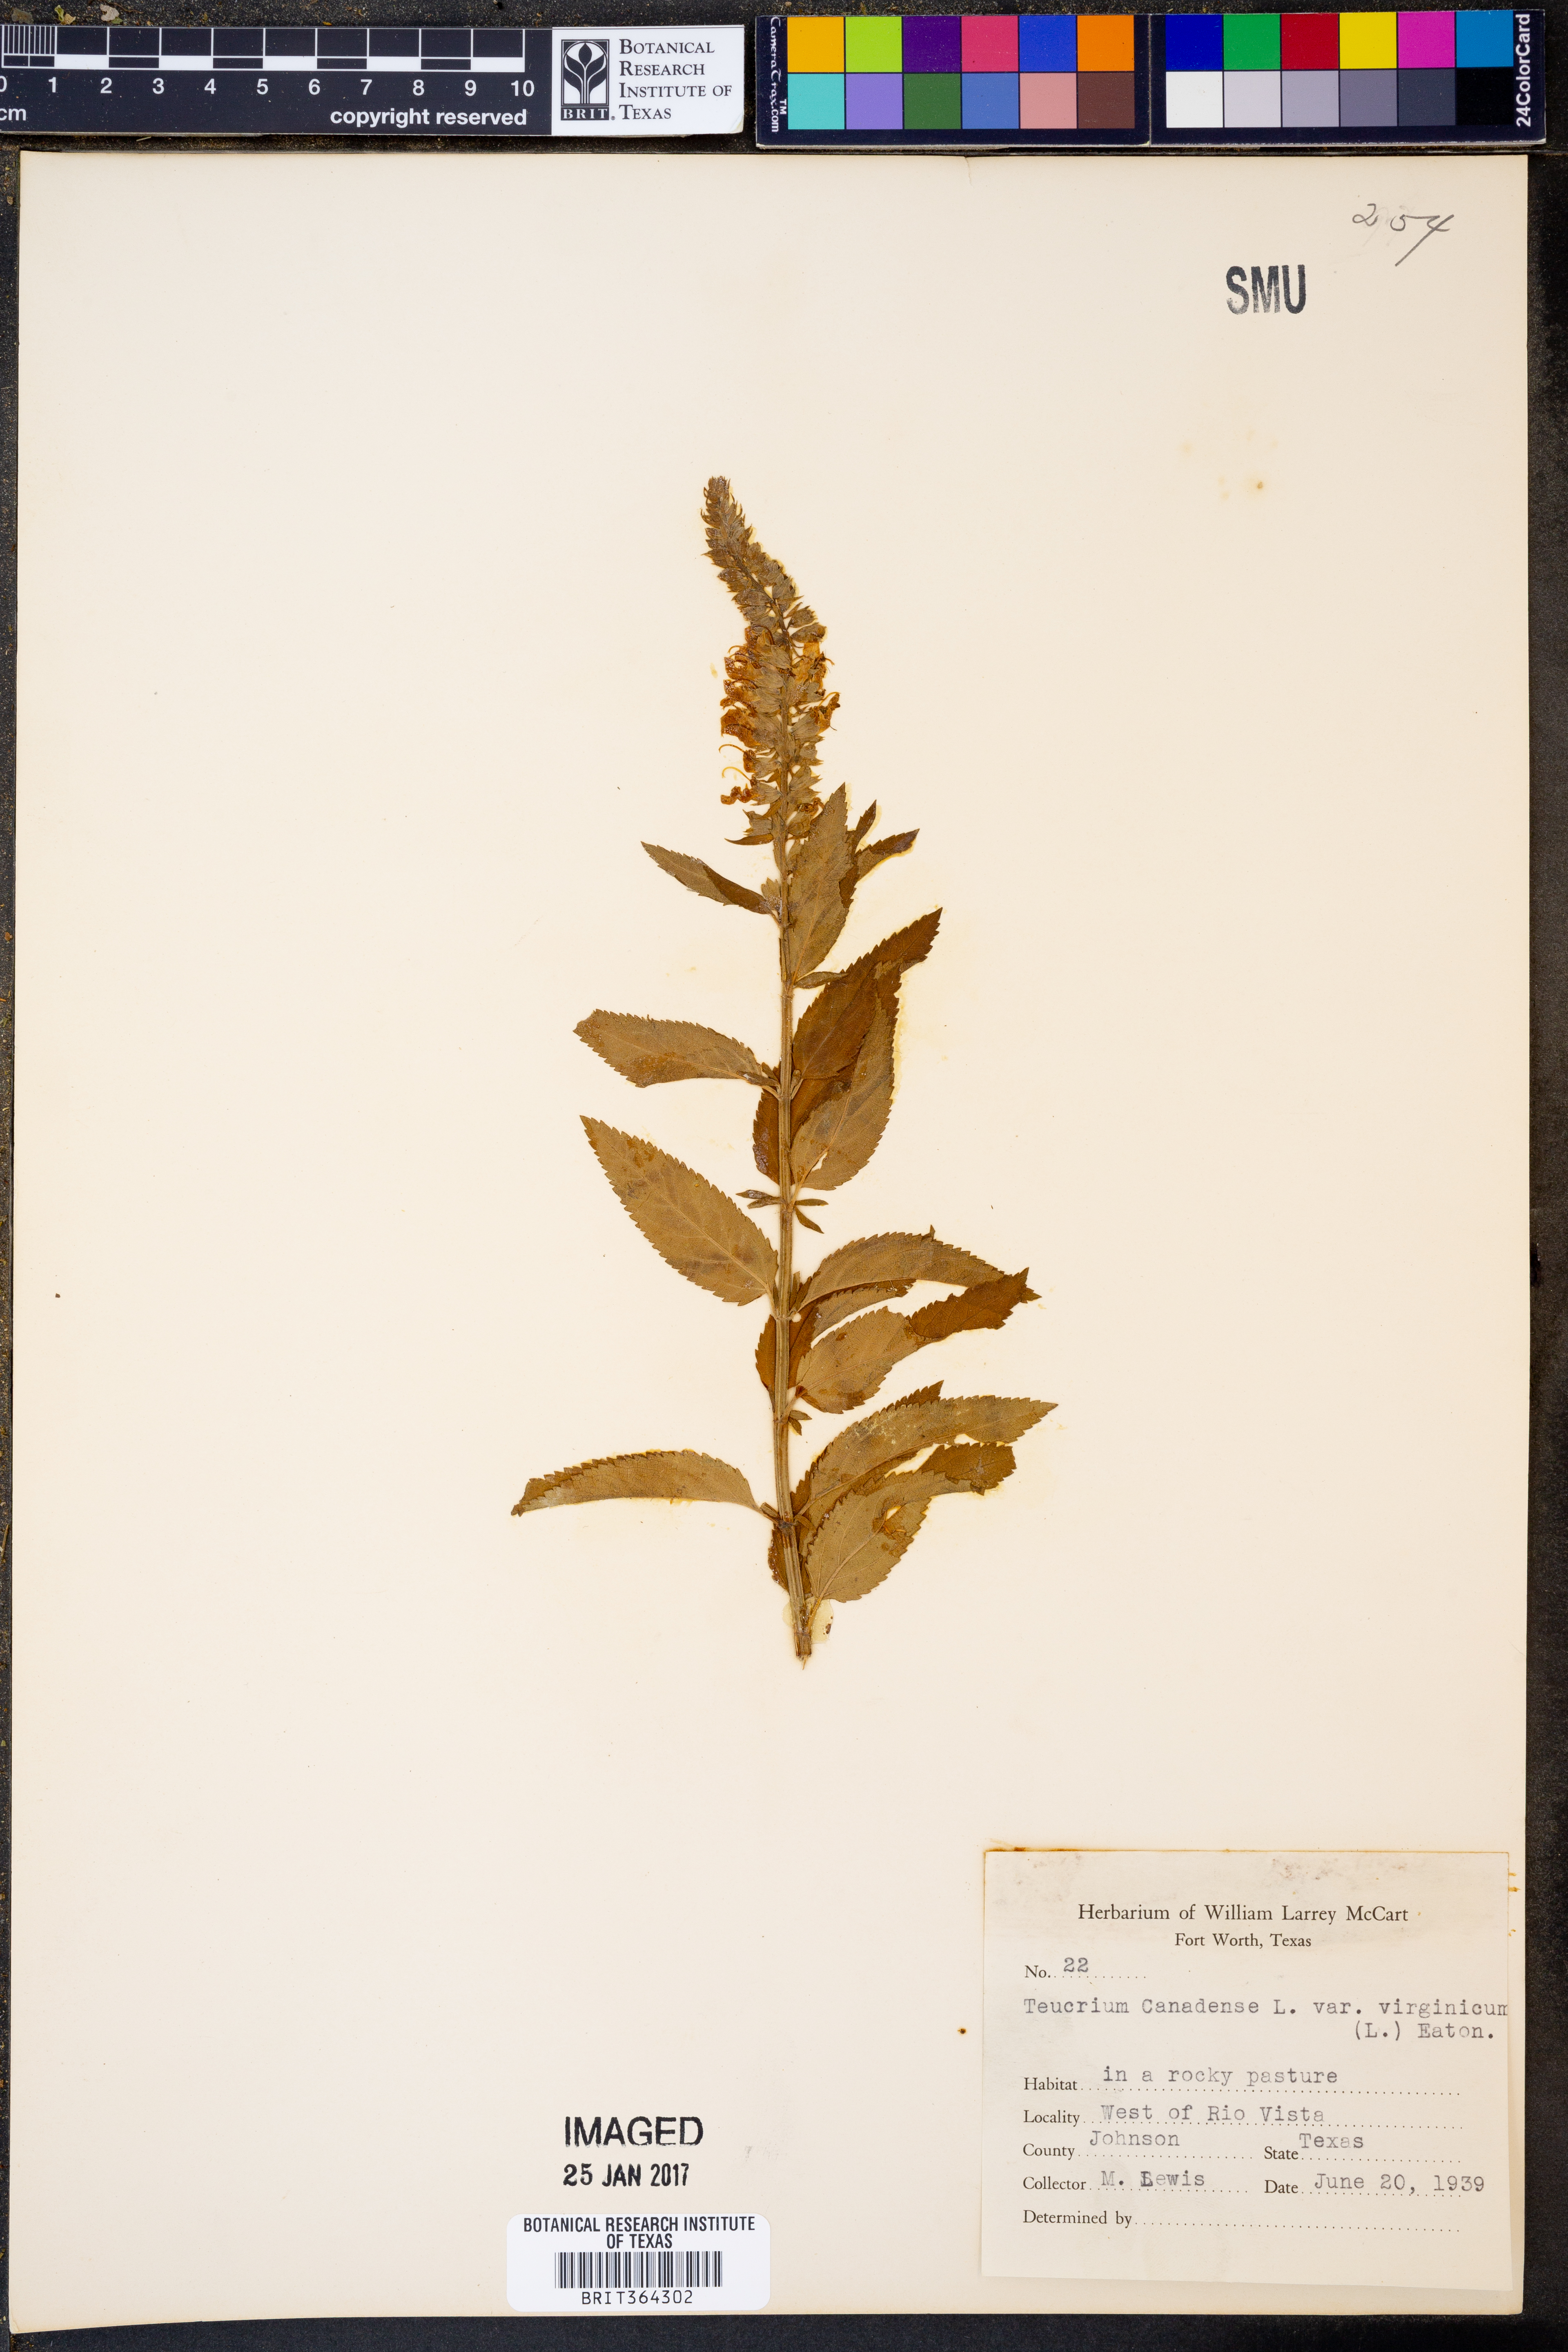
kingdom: Plantae
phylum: Tracheophyta
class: Magnoliopsida
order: Lamiales
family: Lamiaceae
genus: Teucrium
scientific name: Teucrium canadense
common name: American germander
